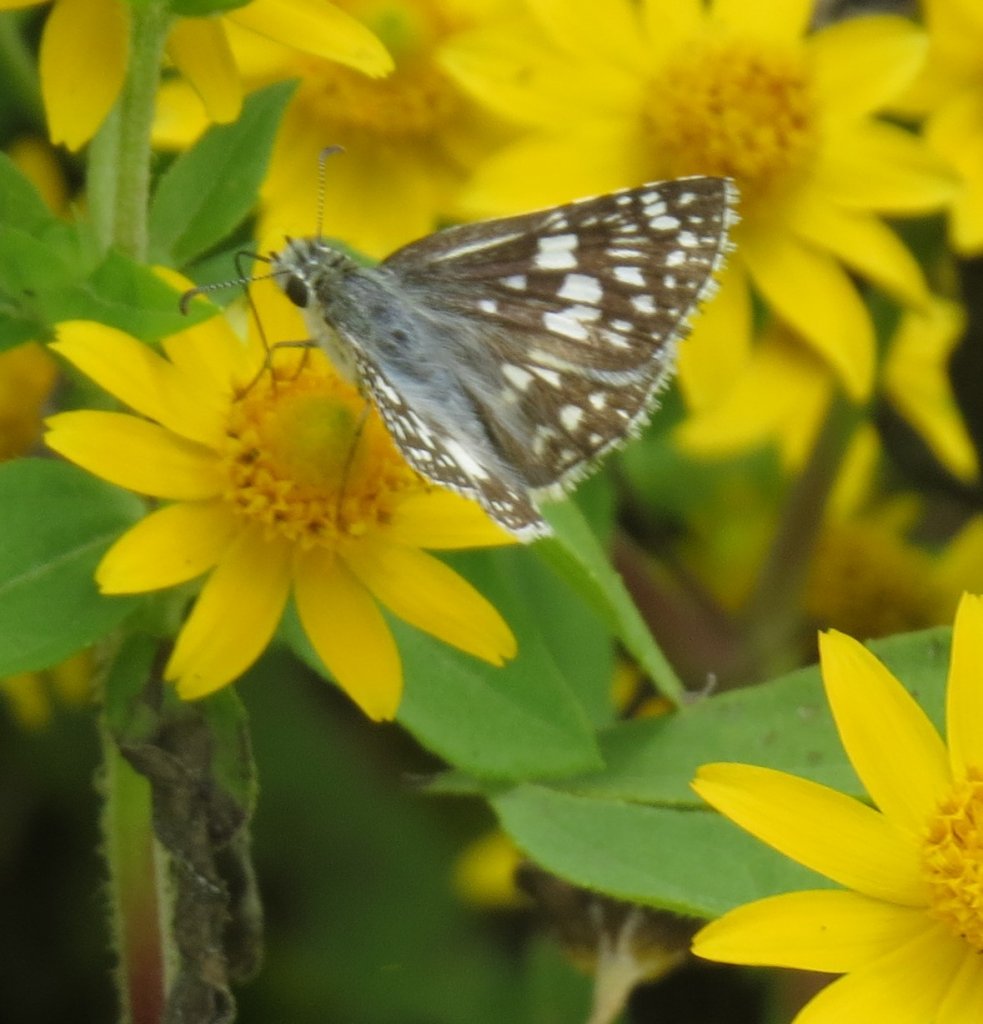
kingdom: Animalia
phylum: Arthropoda
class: Insecta
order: Lepidoptera
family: Hesperiidae
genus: Pyrgus
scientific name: Pyrgus communis
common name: White Checkered-Skipper
